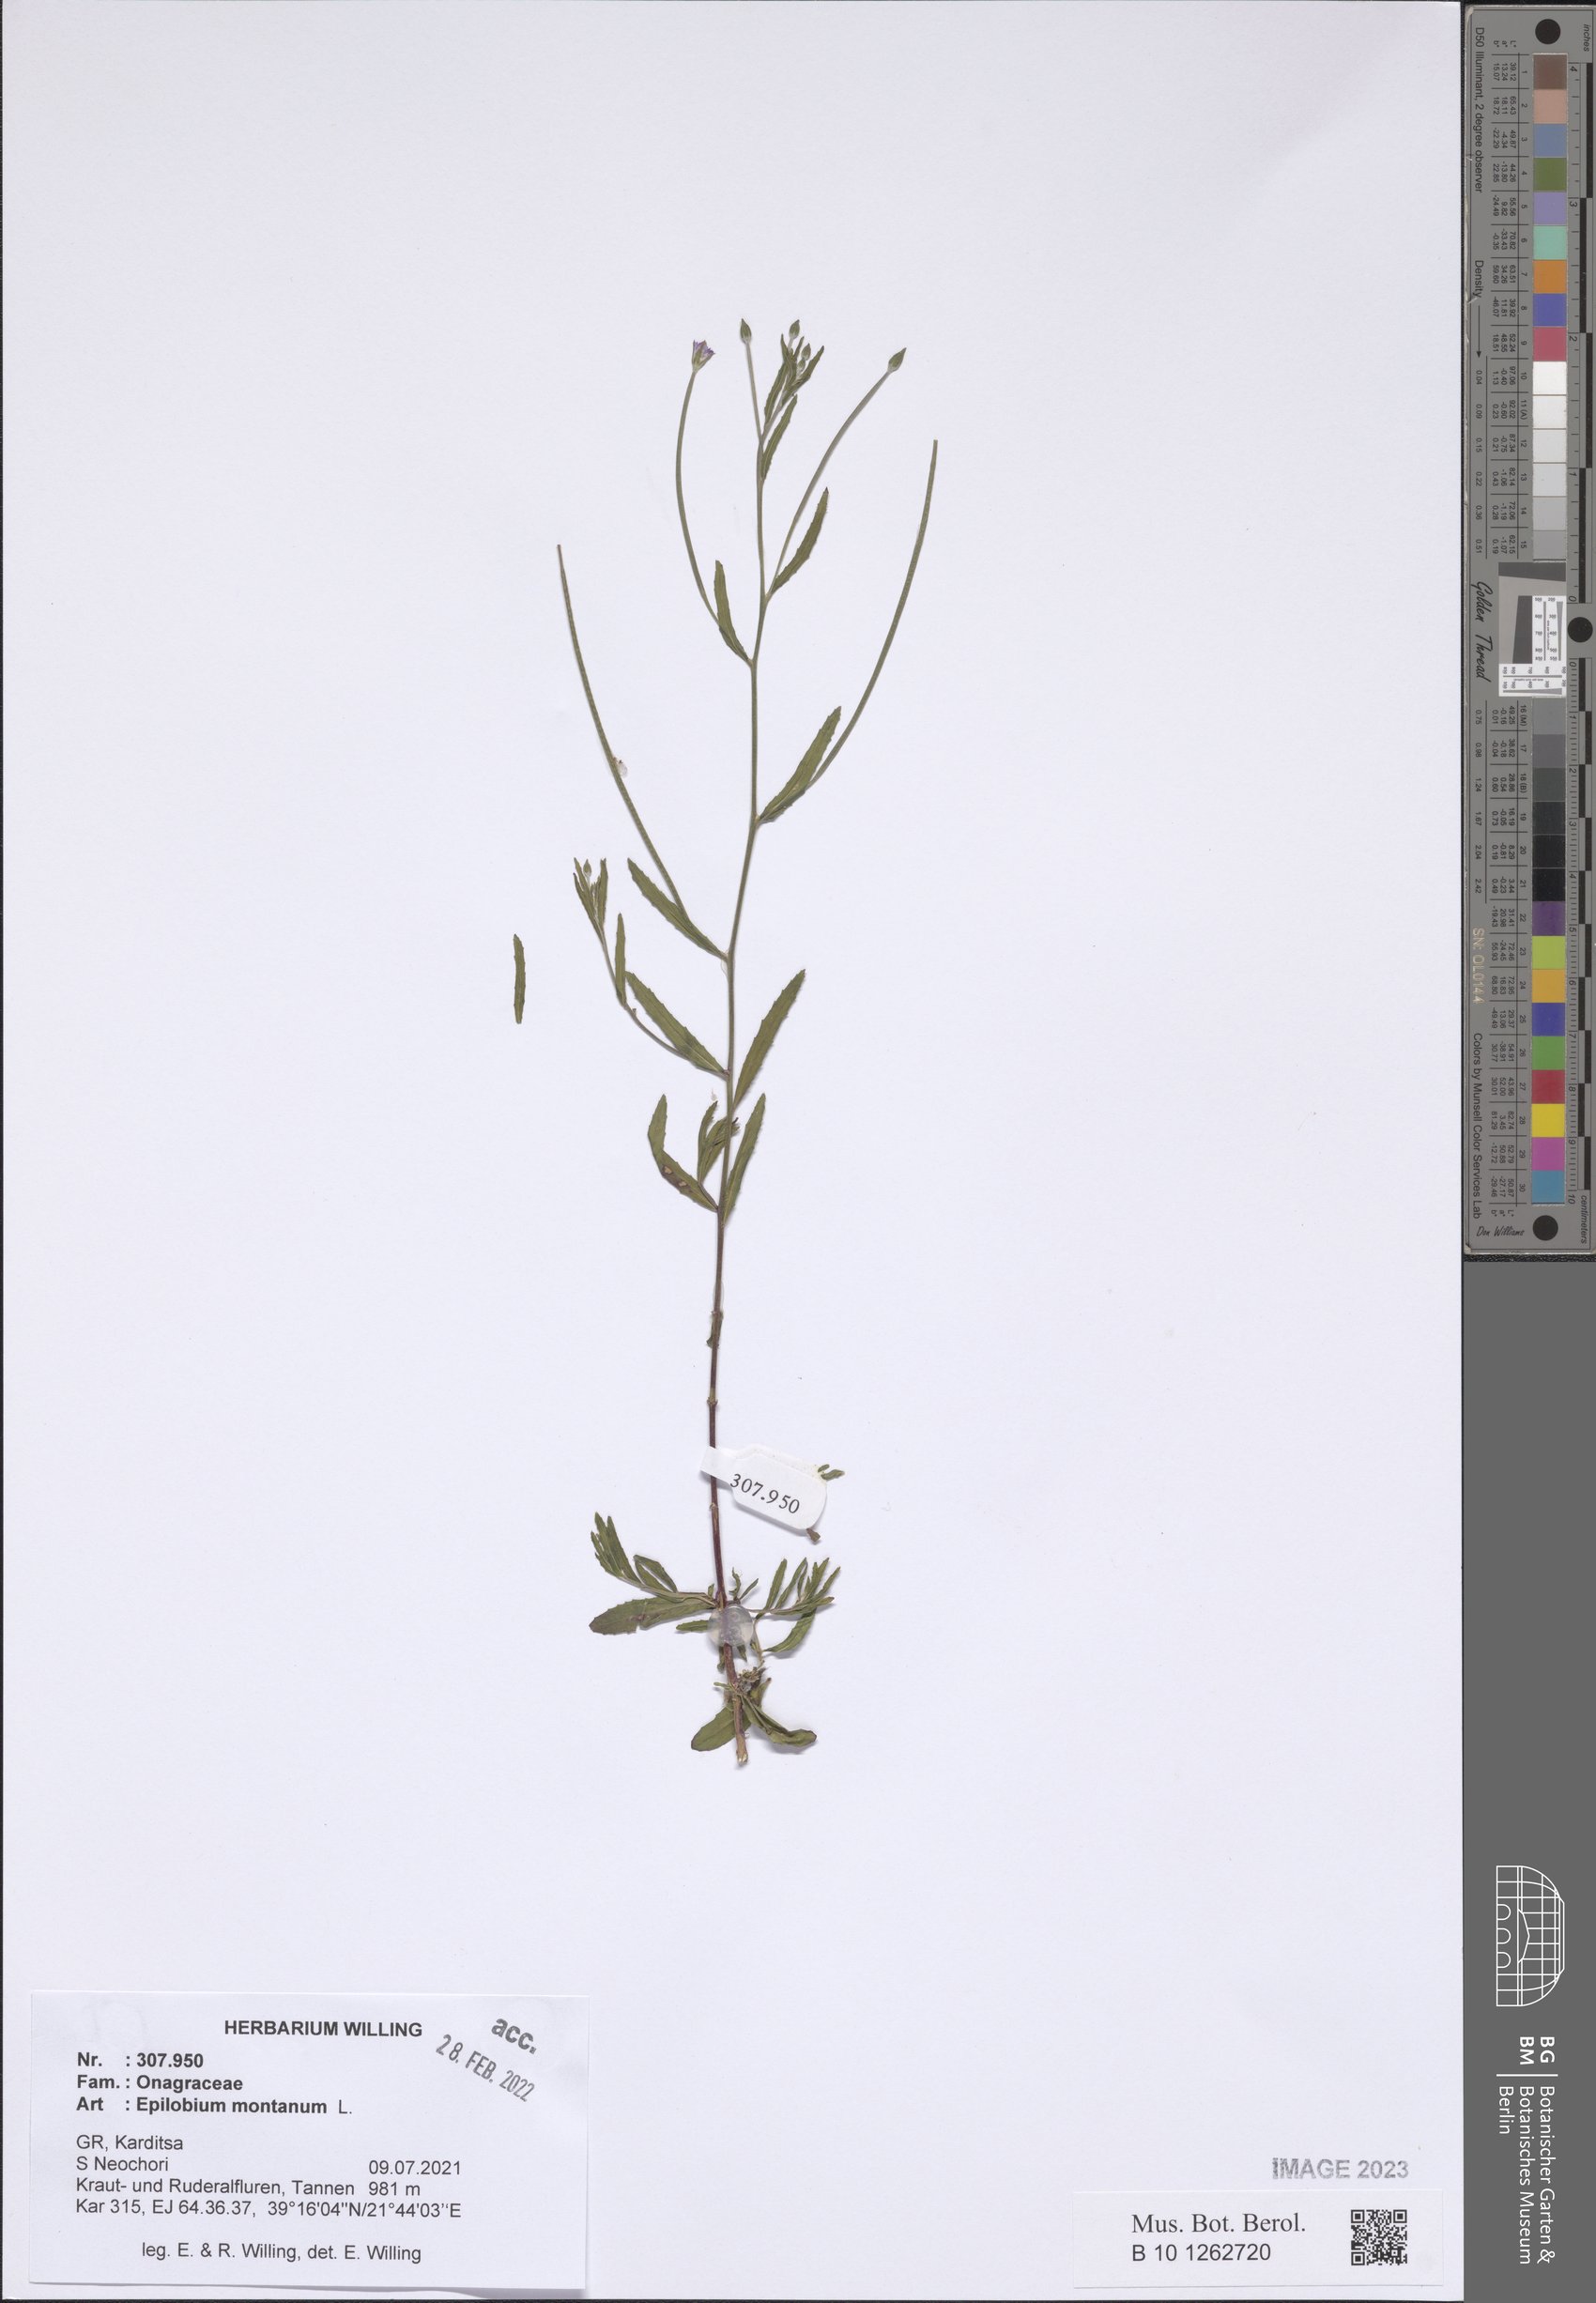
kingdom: Plantae
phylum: Tracheophyta
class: Magnoliopsida
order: Myrtales
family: Onagraceae
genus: Epilobium
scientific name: Epilobium montanum
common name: Broad-leaved willowherb
